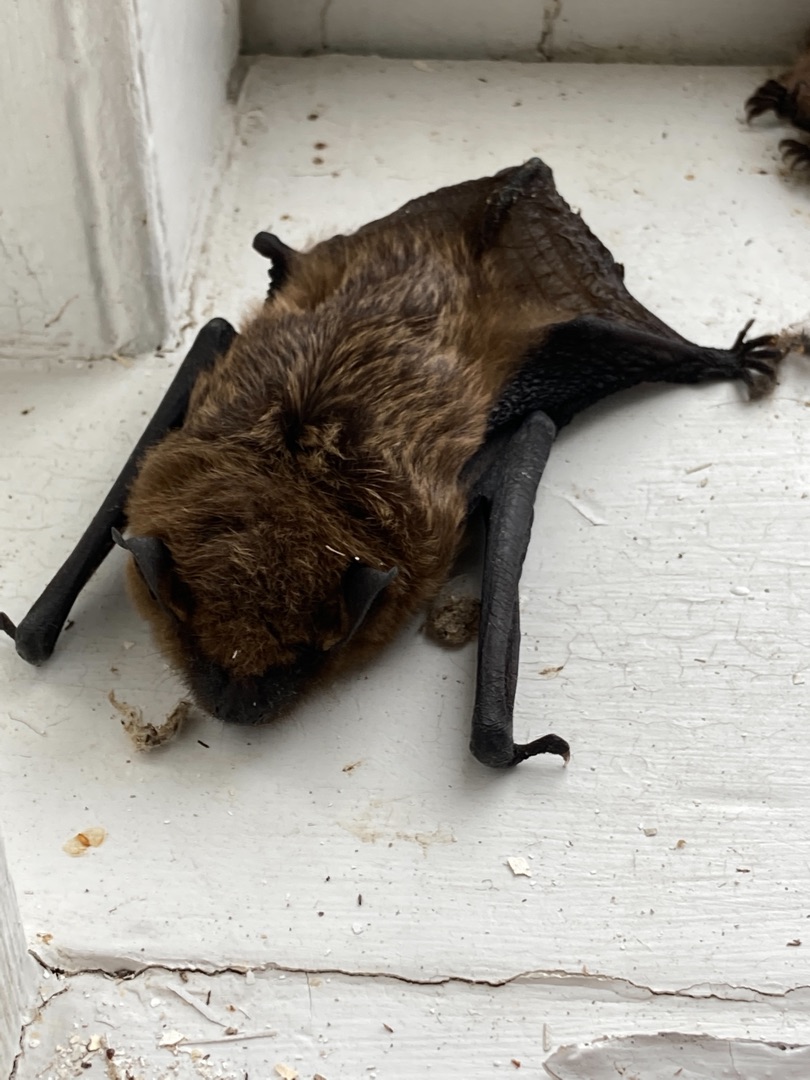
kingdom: Animalia
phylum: Chordata
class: Mammalia
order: Chiroptera
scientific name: Chiroptera
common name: Flagermus
